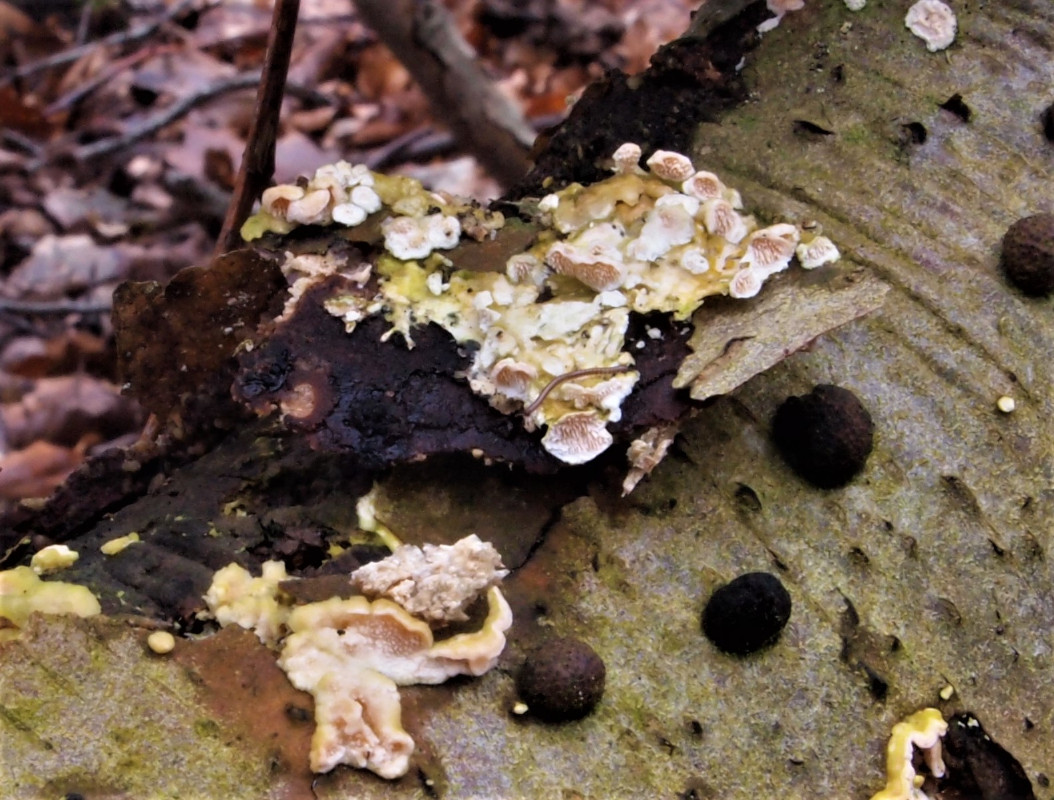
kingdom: Fungi
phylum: Basidiomycota
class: Agaricomycetes
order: Polyporales
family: Steccherinaceae
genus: Steccherinum
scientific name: Steccherinum ochraceum
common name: almindelig skønpig
